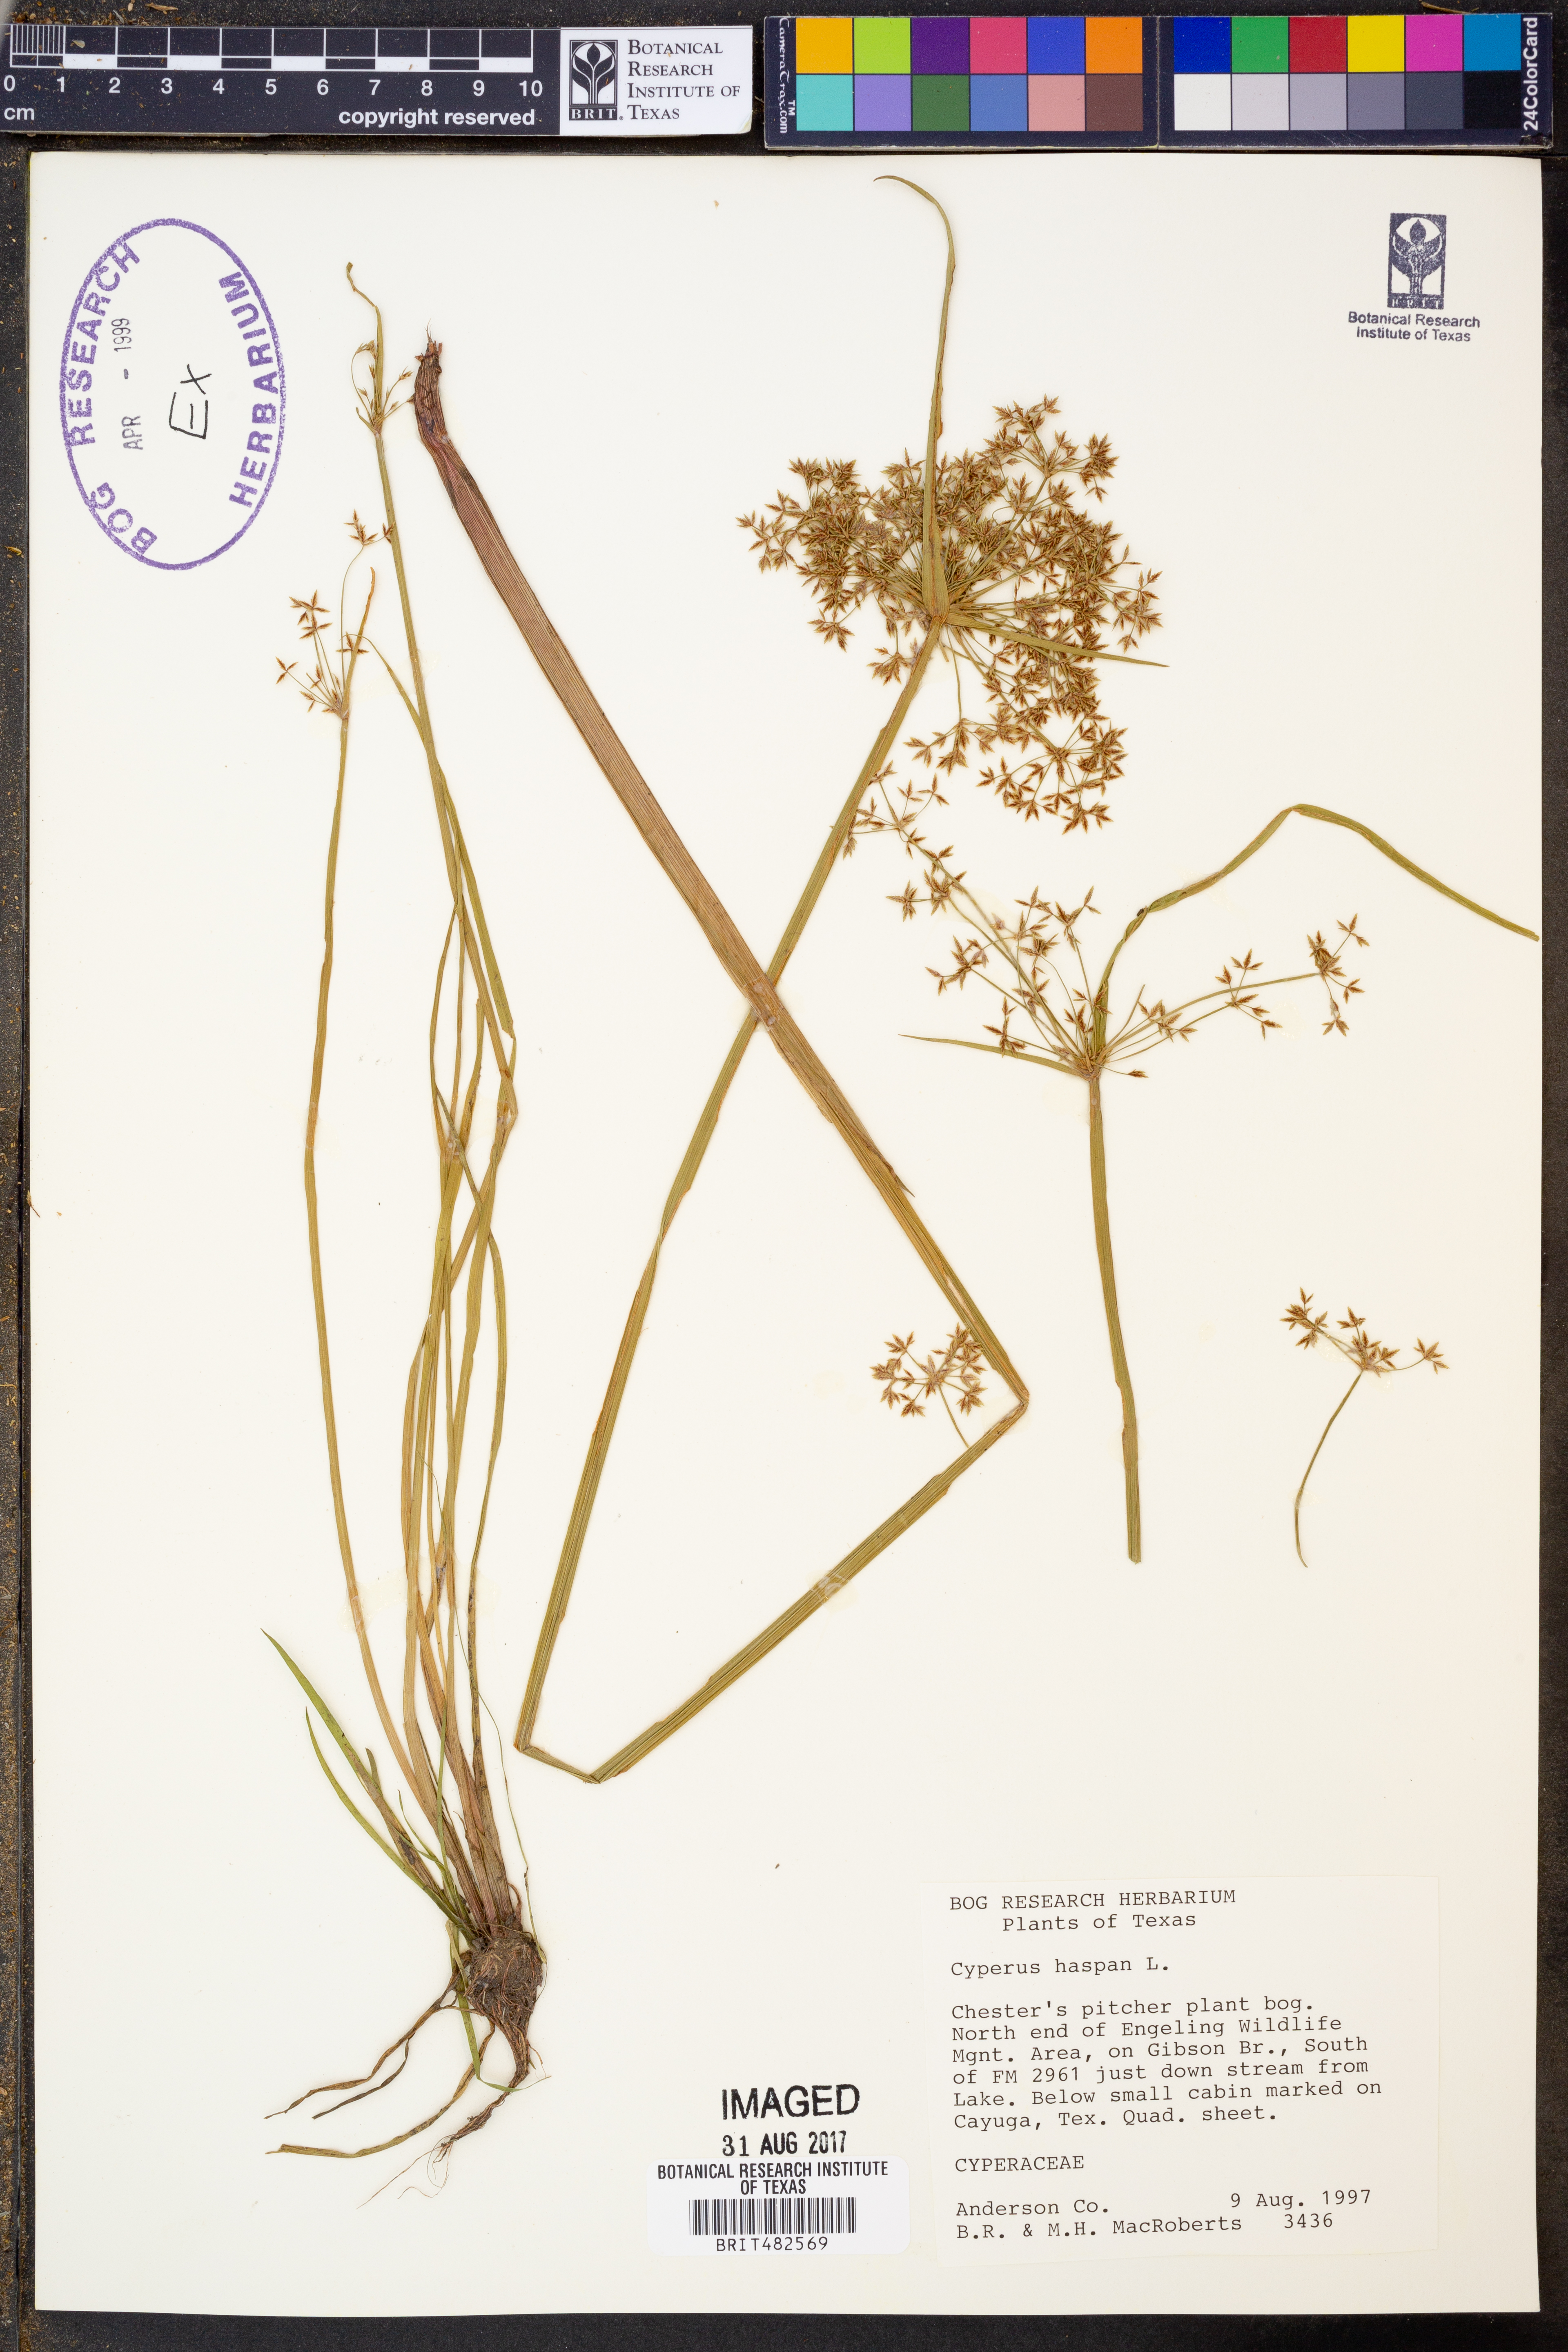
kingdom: Plantae
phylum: Tracheophyta
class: Liliopsida
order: Poales
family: Cyperaceae
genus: Cyperus
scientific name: Cyperus haspan
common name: Haspan flatsedge
